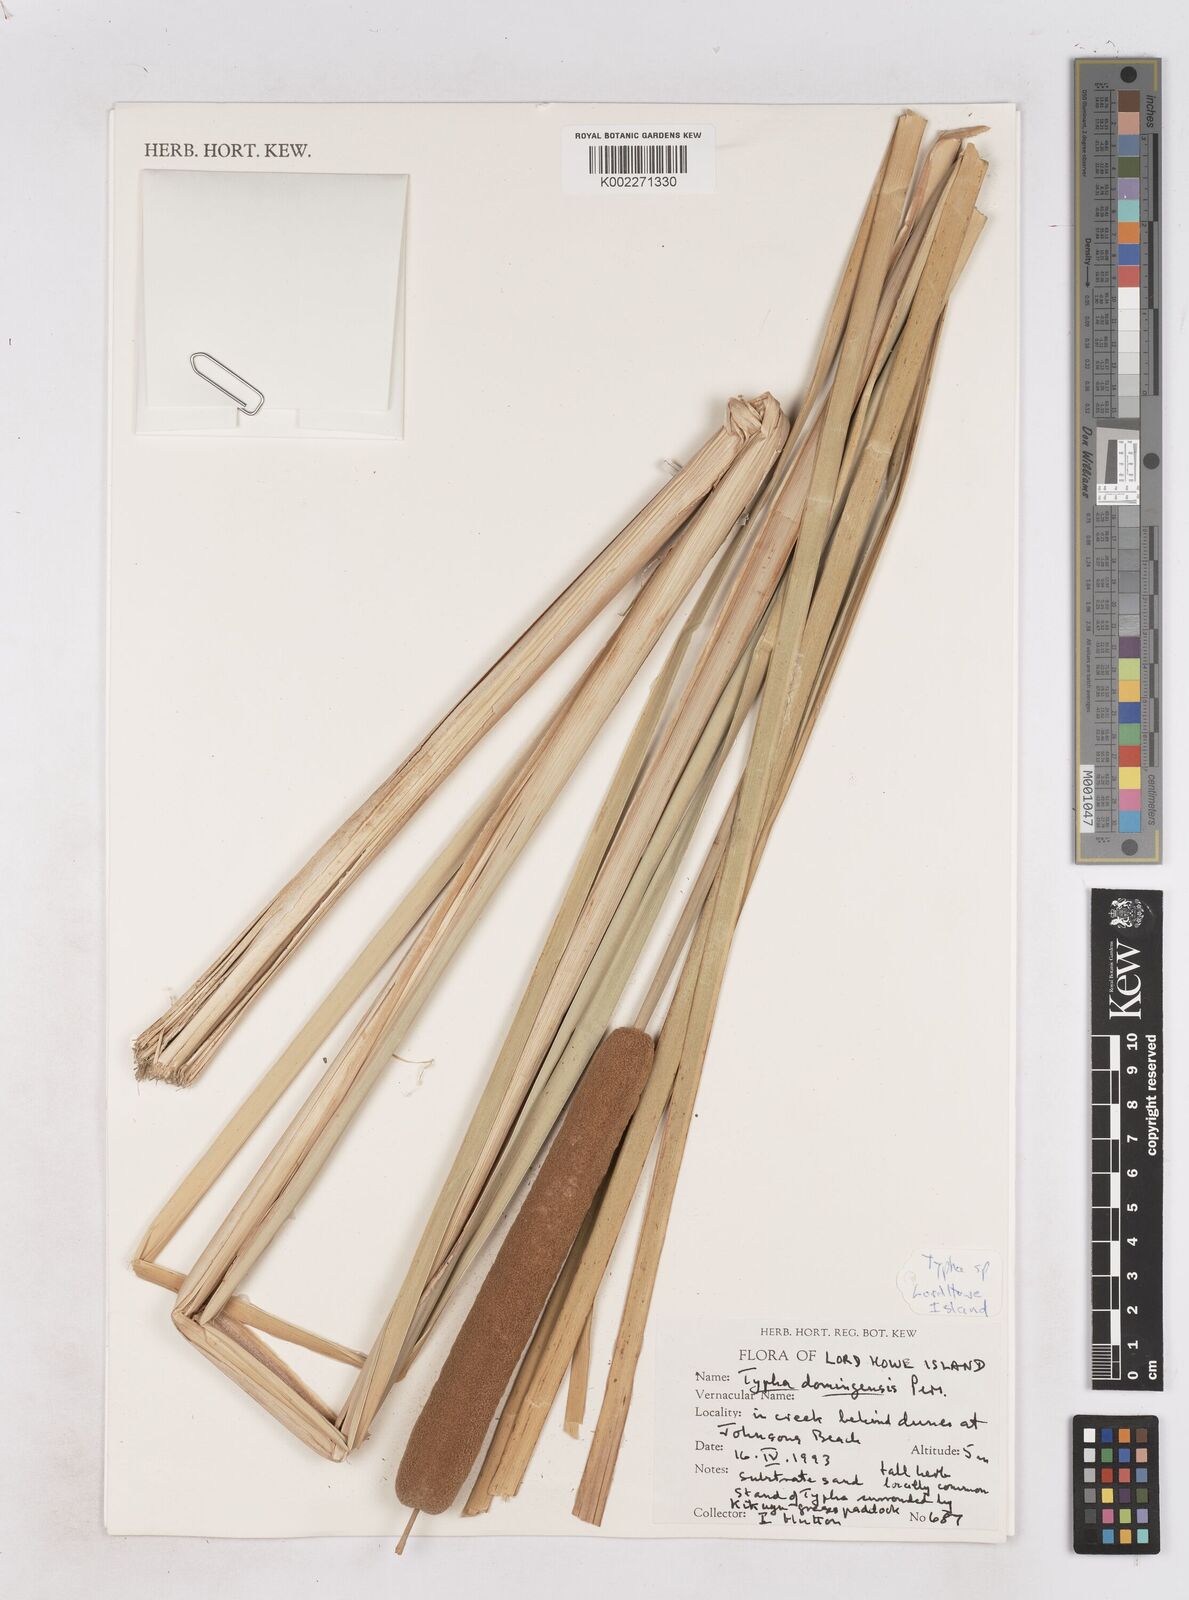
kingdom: Plantae
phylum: Tracheophyta
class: Liliopsida
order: Poales
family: Typhaceae
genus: Typha
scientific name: Typha domingensis
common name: Southern cattail
